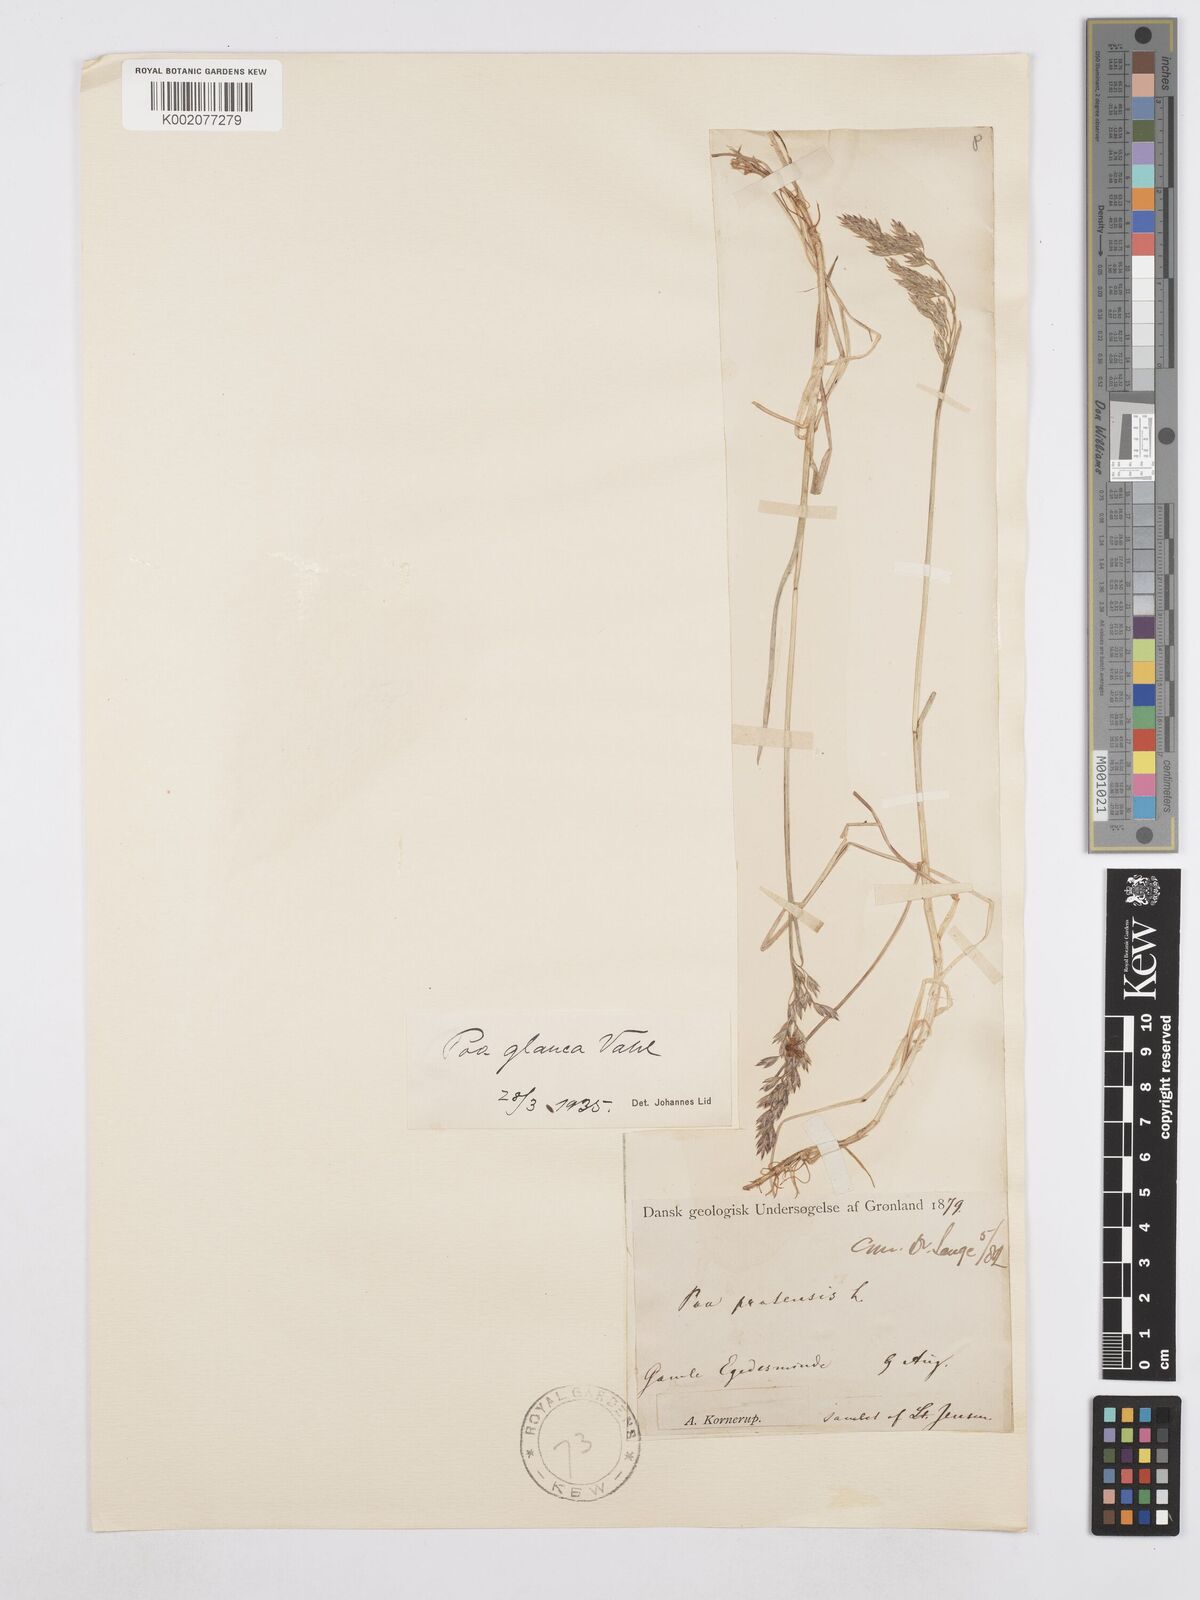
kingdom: Plantae
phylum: Tracheophyta
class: Liliopsida
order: Poales
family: Poaceae
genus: Poa
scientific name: Poa glauca
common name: Glaucous bluegrass
